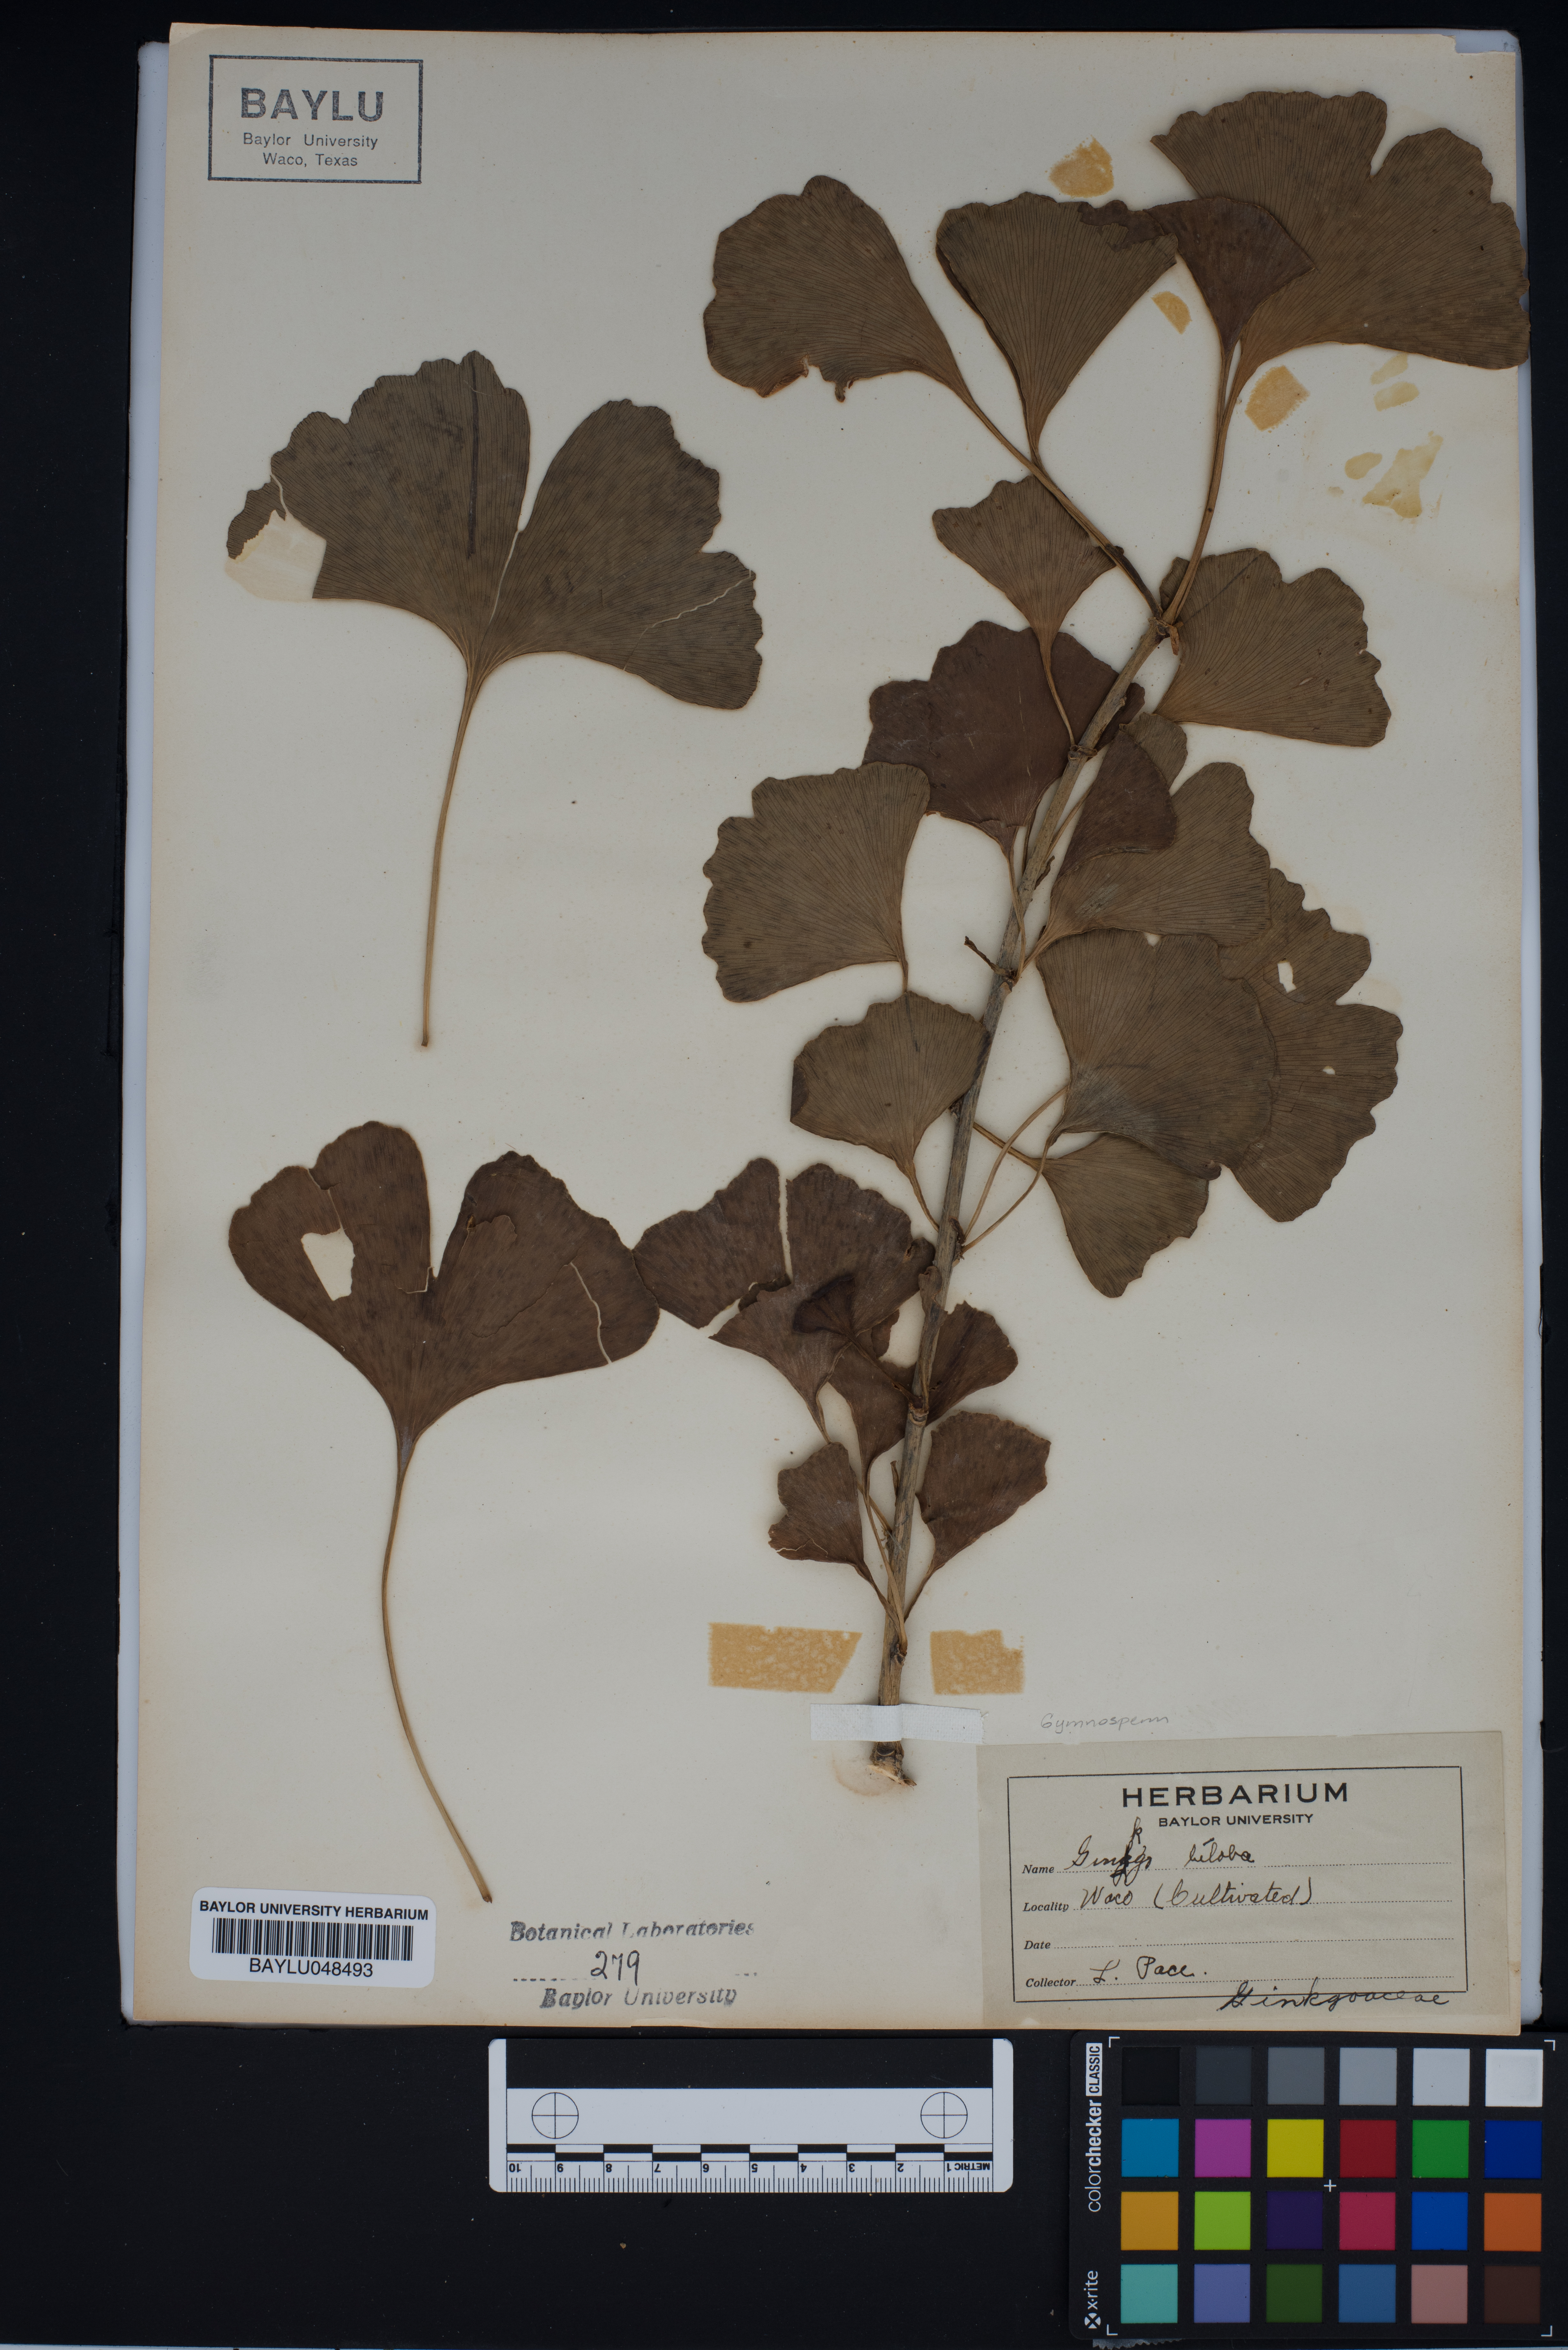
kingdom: Plantae
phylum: Tracheophyta
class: Ginkgoopsida
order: Ginkgoales
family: Ginkgoaceae
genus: Ginkgo
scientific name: Ginkgo biloba
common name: Ginkgo
